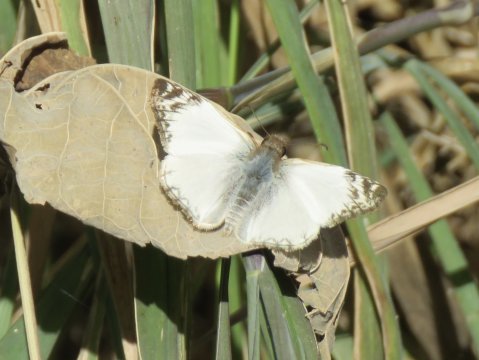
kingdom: Animalia
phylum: Arthropoda
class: Insecta
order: Lepidoptera
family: Hesperiidae
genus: Heliopetes
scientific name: Heliopetes laviana
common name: Laviana White-Skipper
